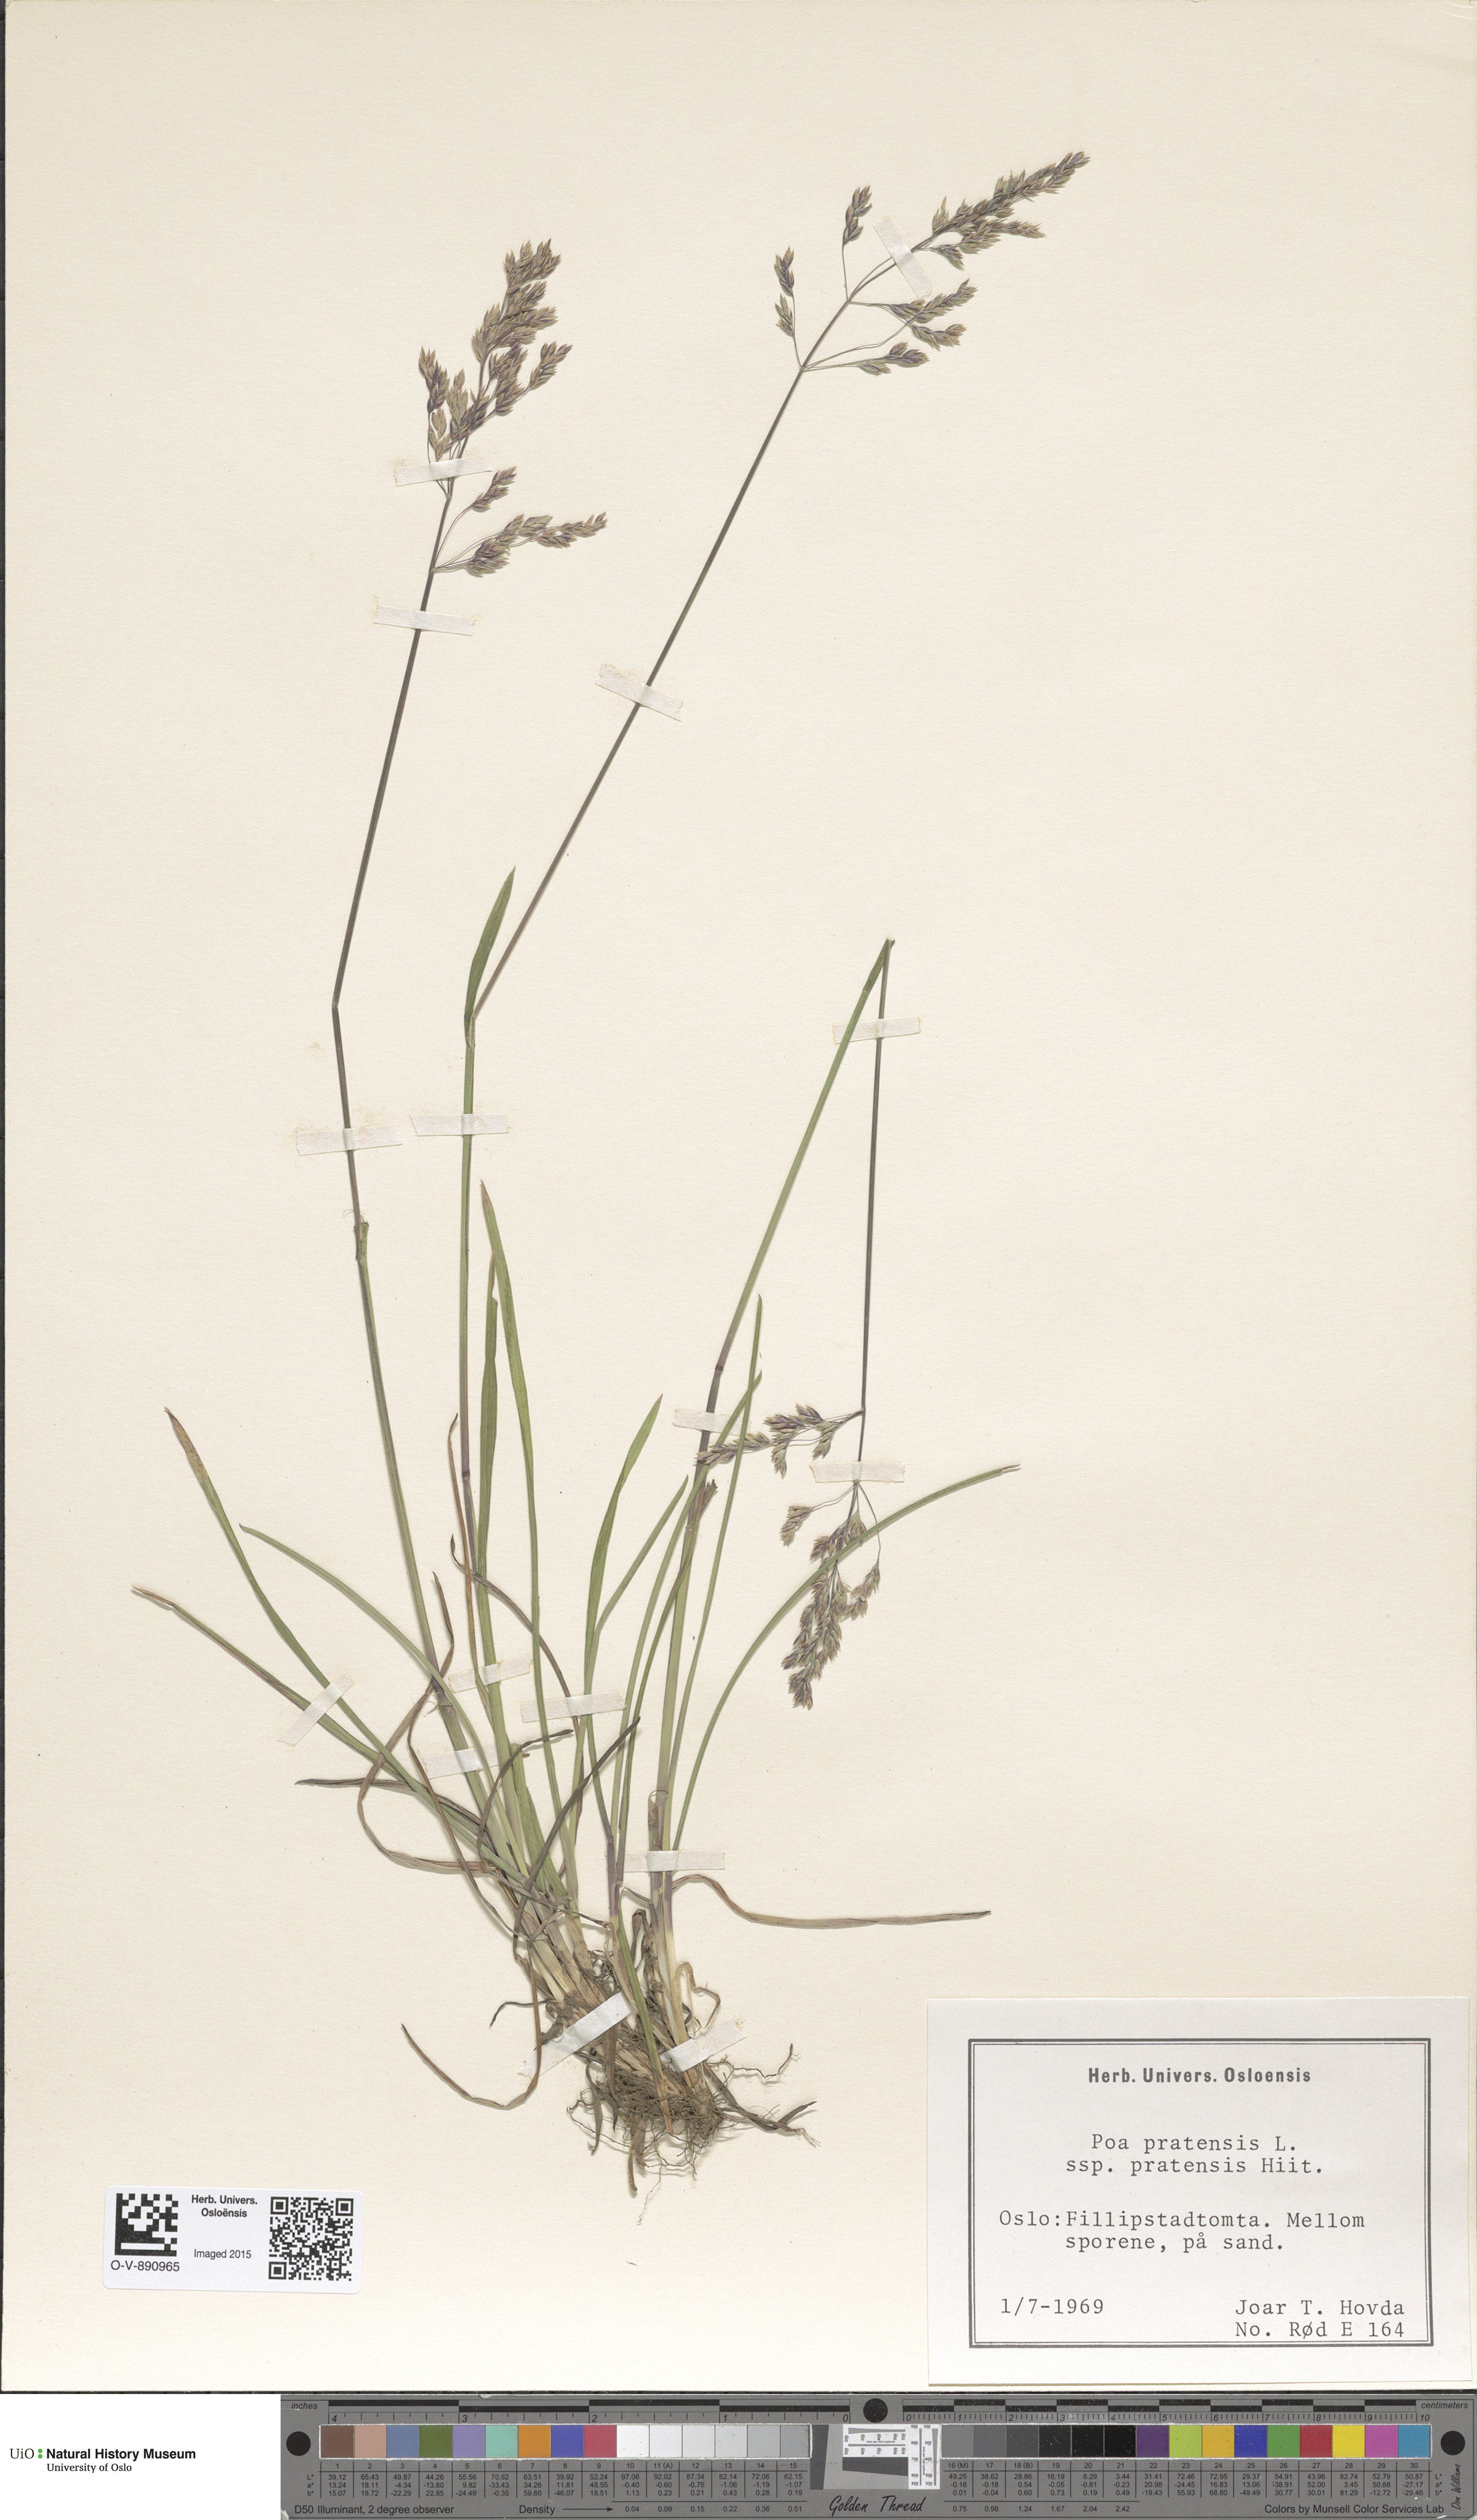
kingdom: Plantae
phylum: Tracheophyta
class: Liliopsida
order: Poales
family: Poaceae
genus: Poa
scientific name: Poa pratensis
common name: Kentucky bluegrass
